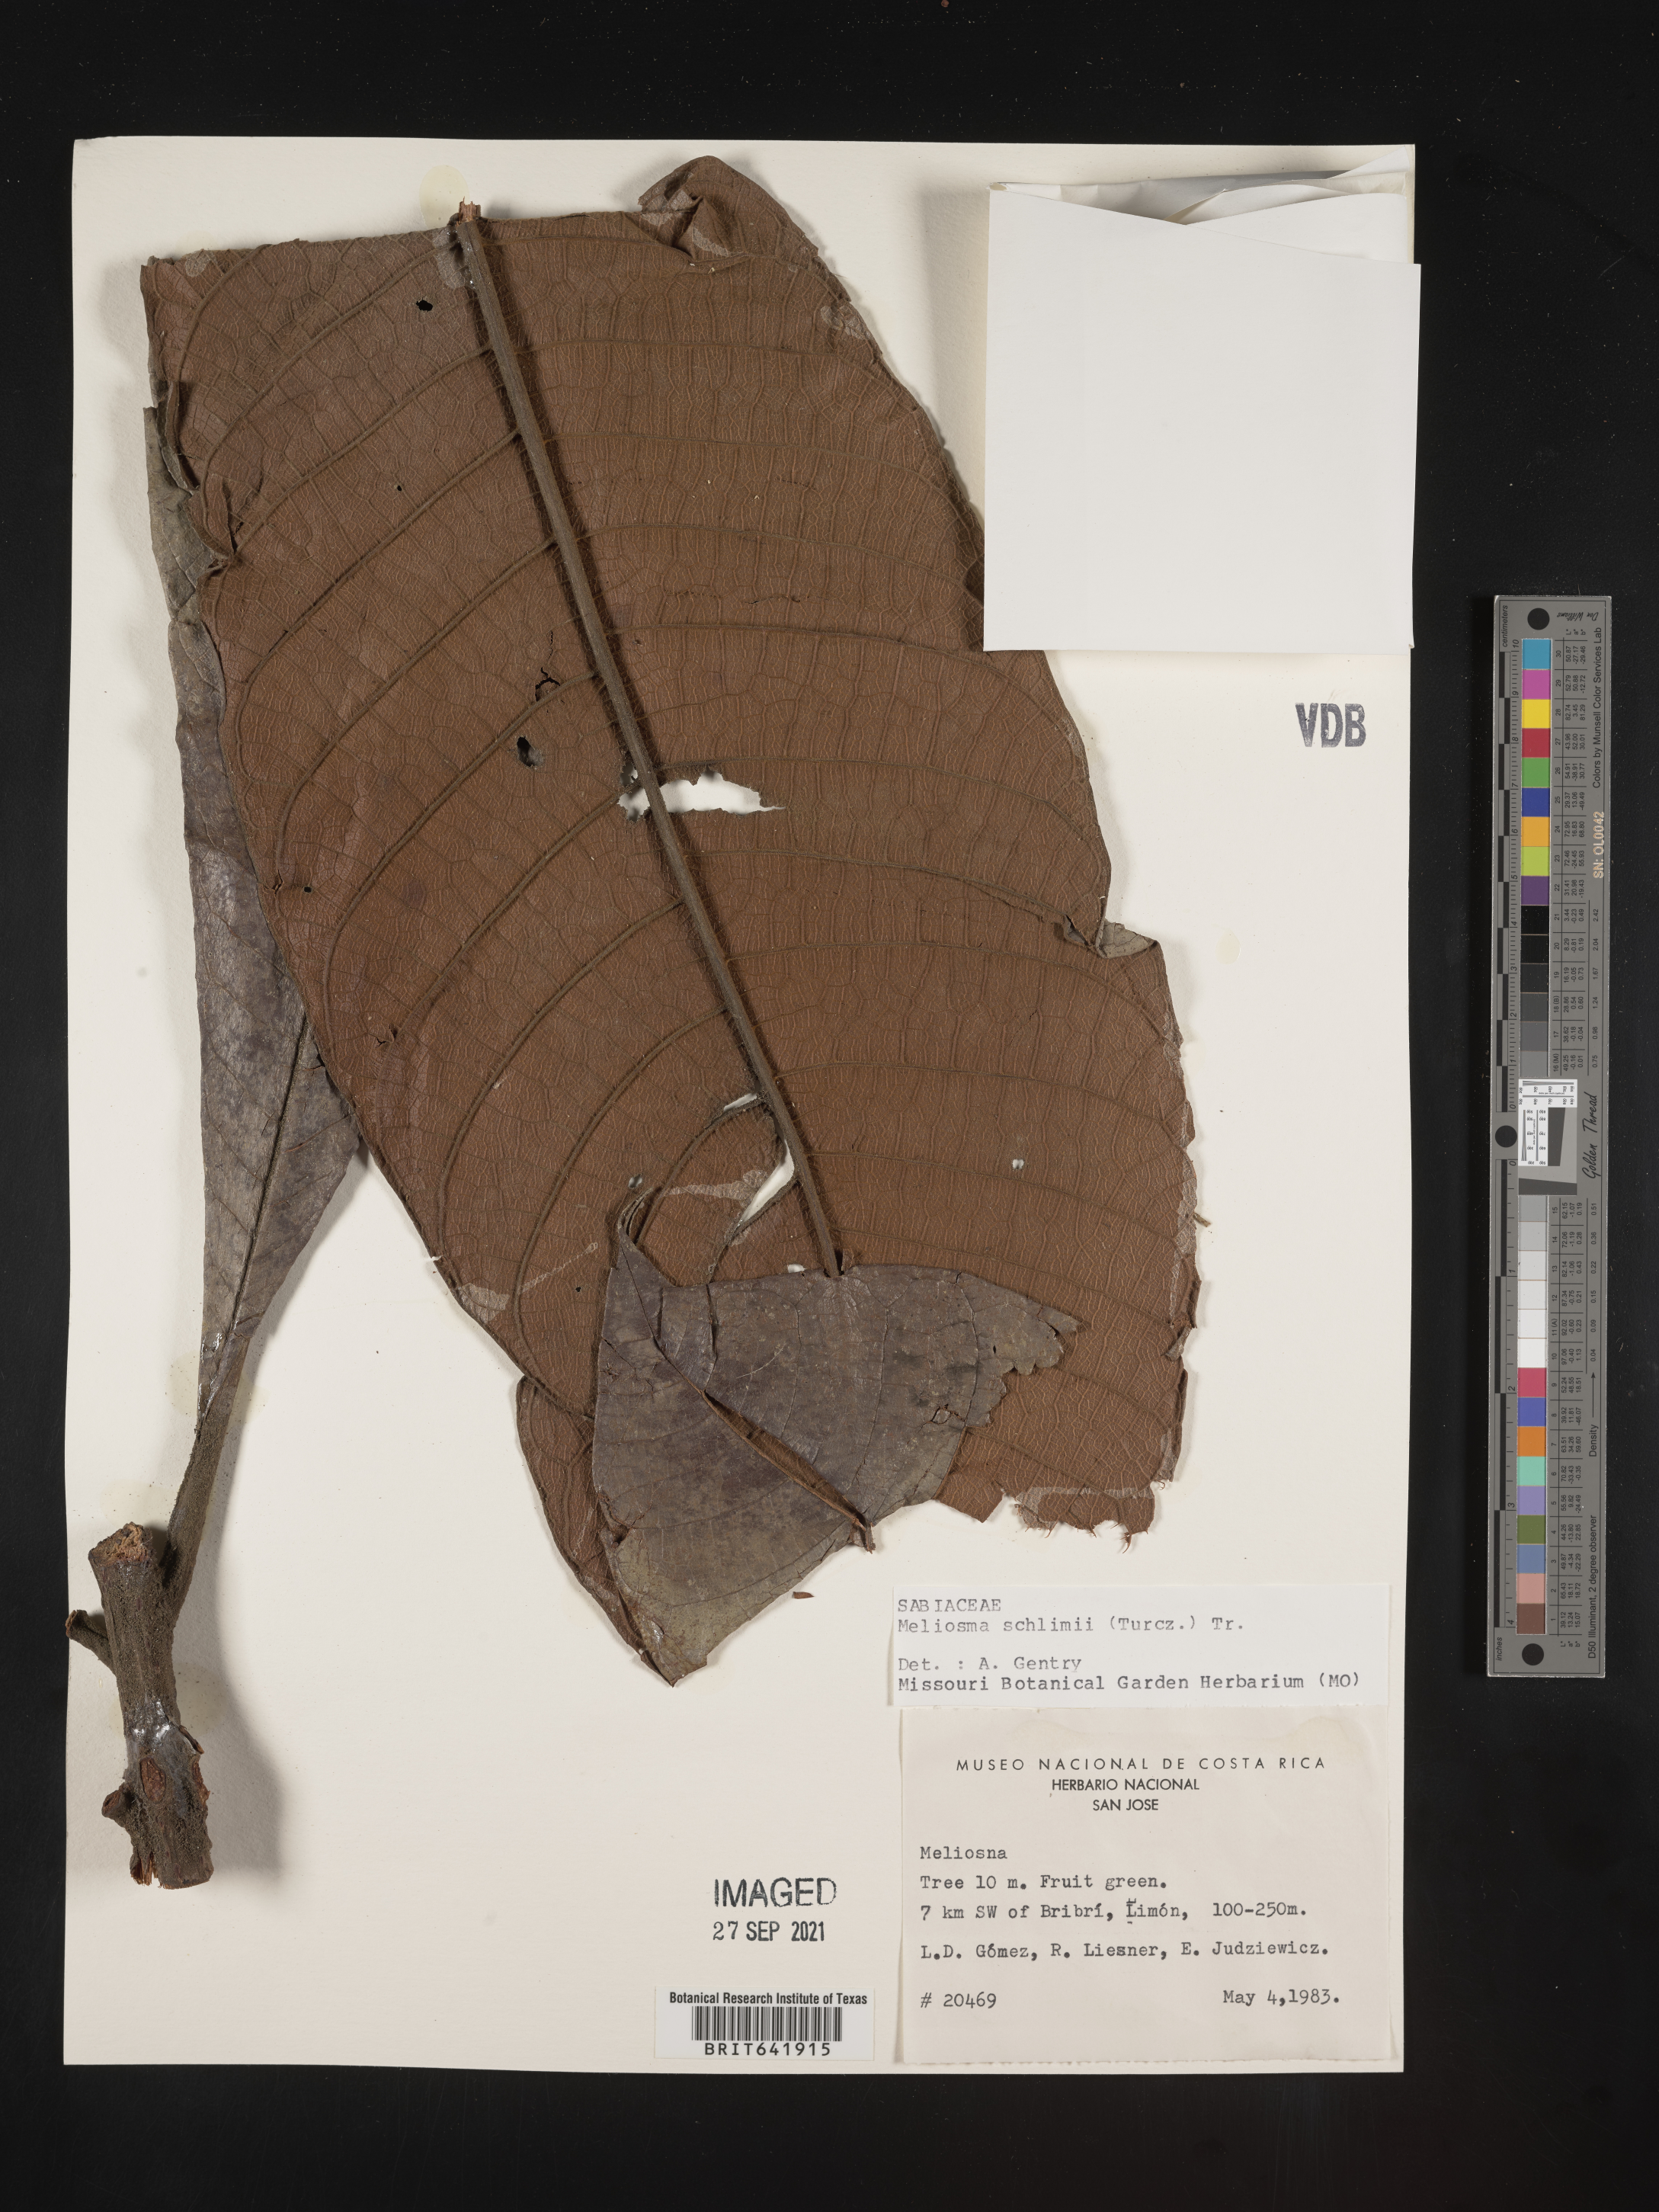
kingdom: Plantae
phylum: Tracheophyta
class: Magnoliopsida
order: Proteales
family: Sabiaceae
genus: Meliosma
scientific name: Meliosma
